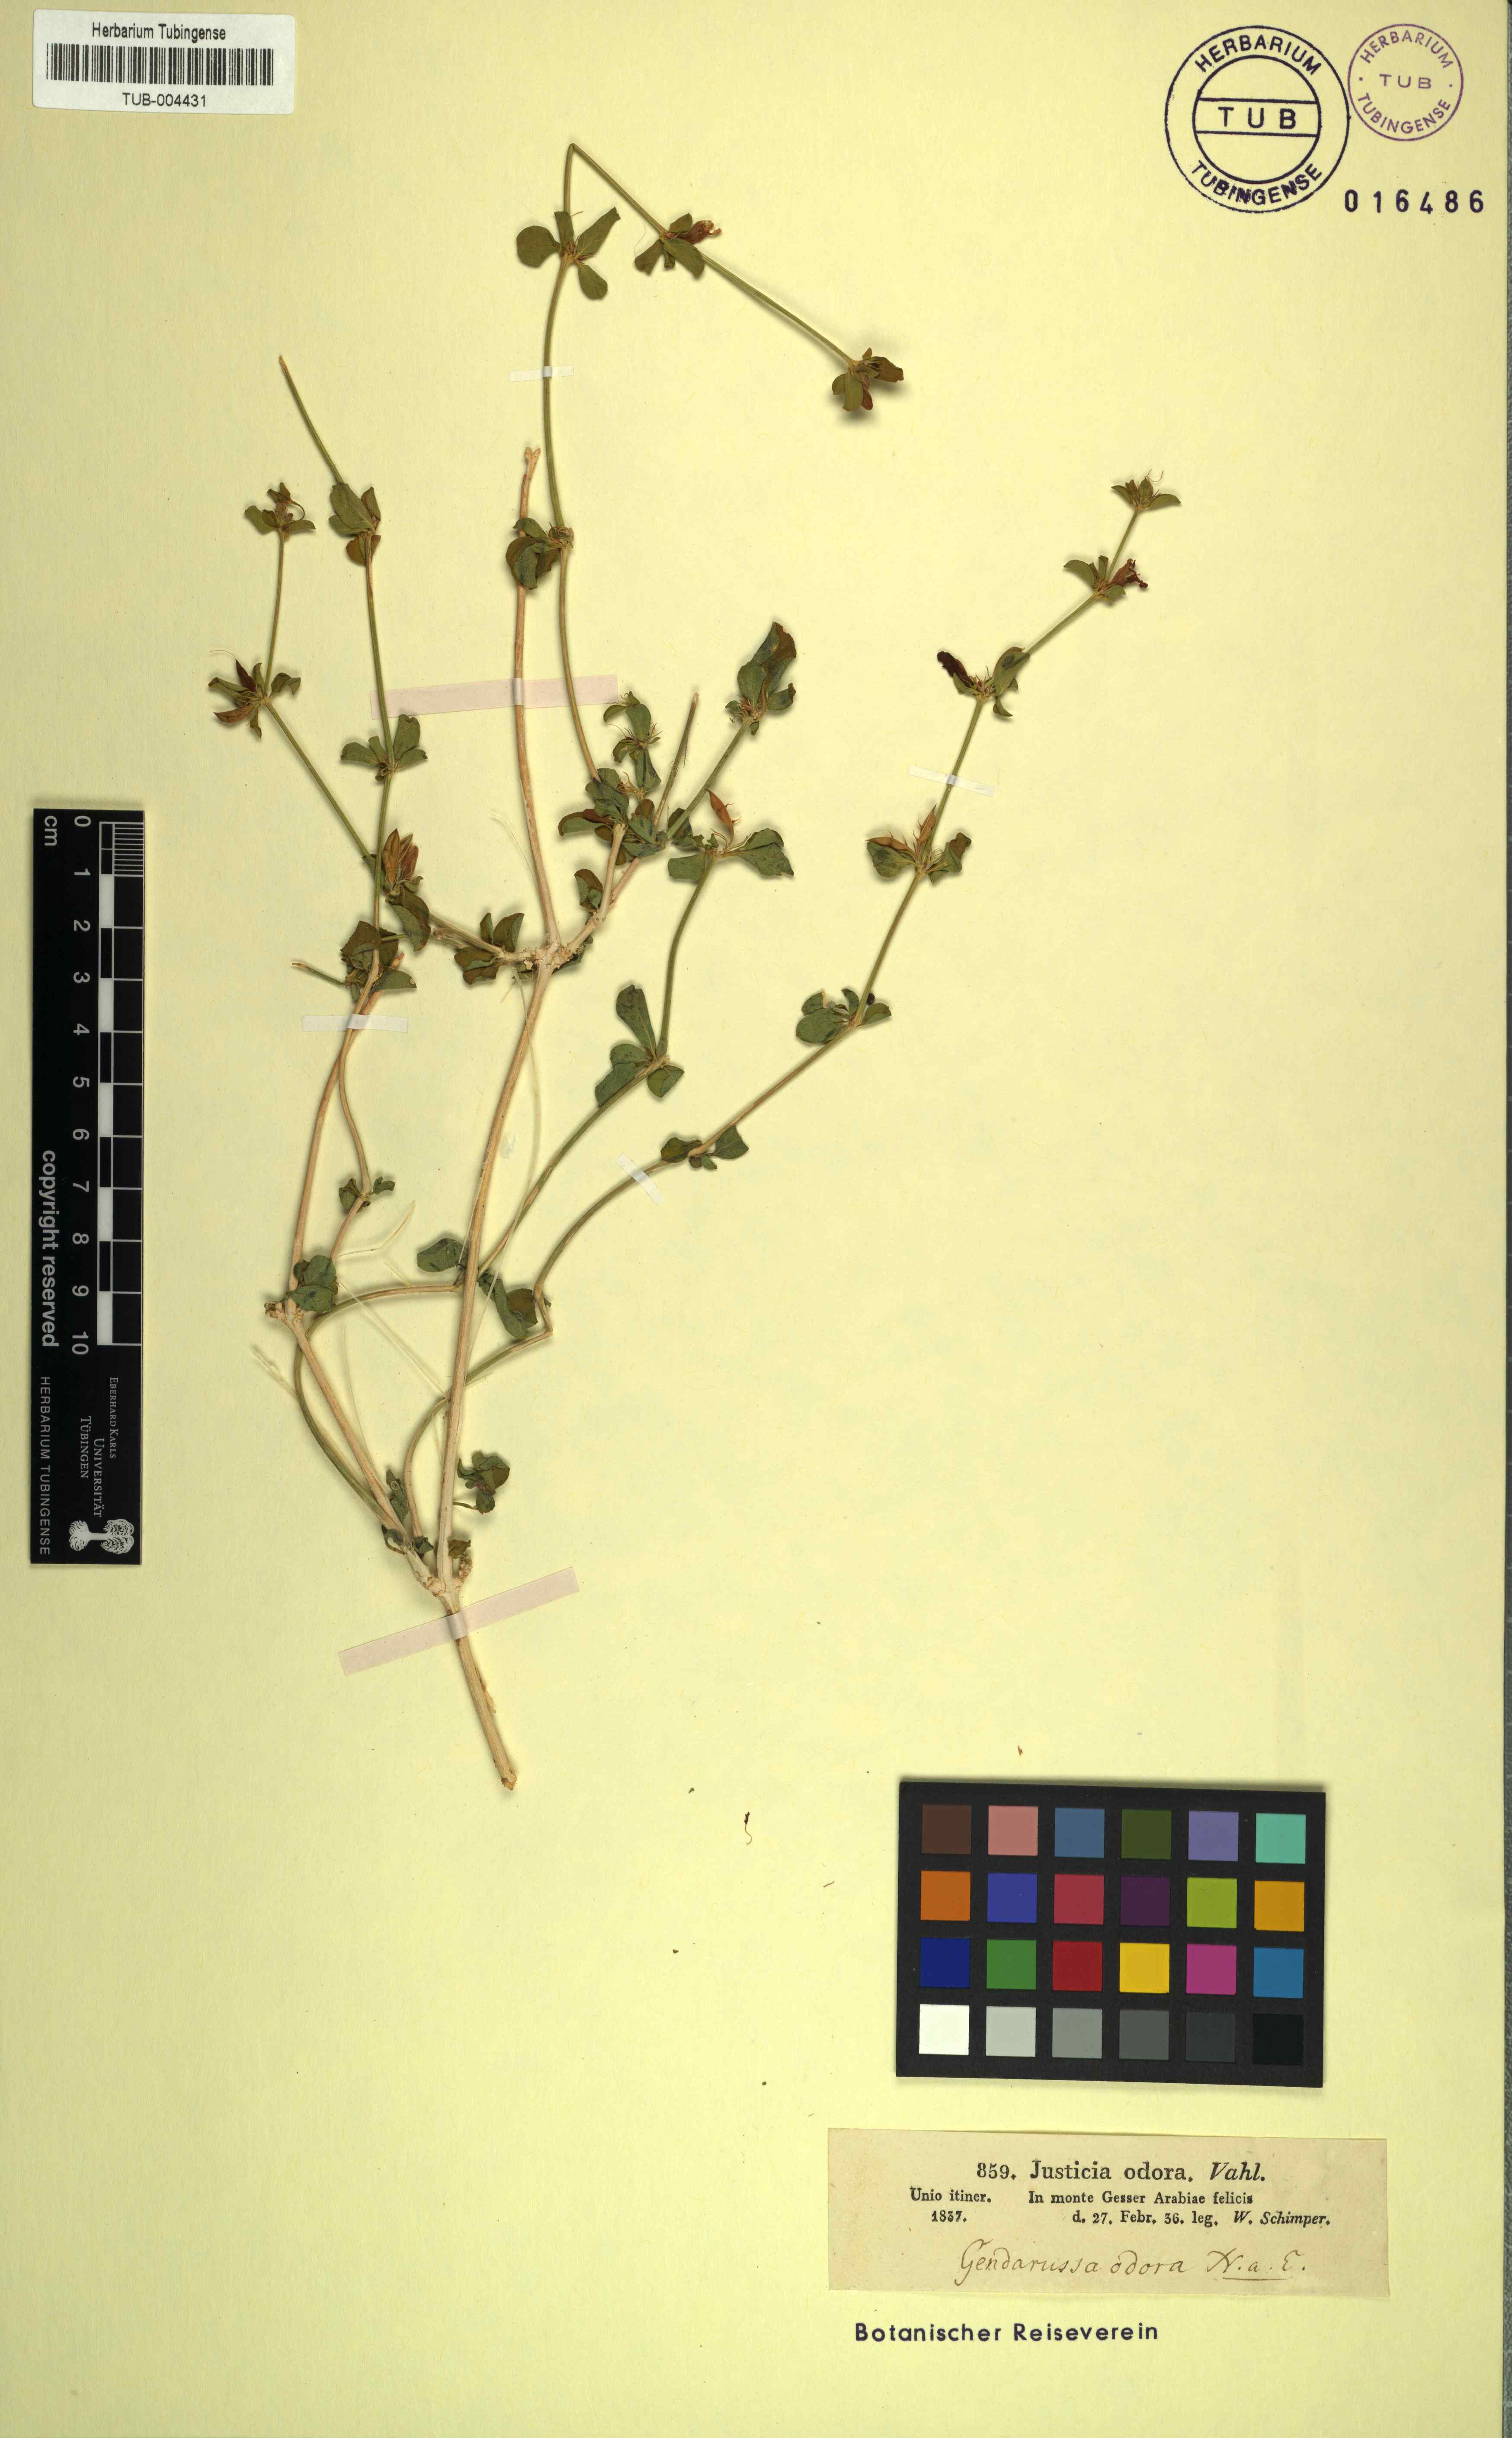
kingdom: Plantae
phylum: Tracheophyta
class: Magnoliopsida
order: Lamiales
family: Acanthaceae
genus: Justicia
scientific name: Justicia odora
